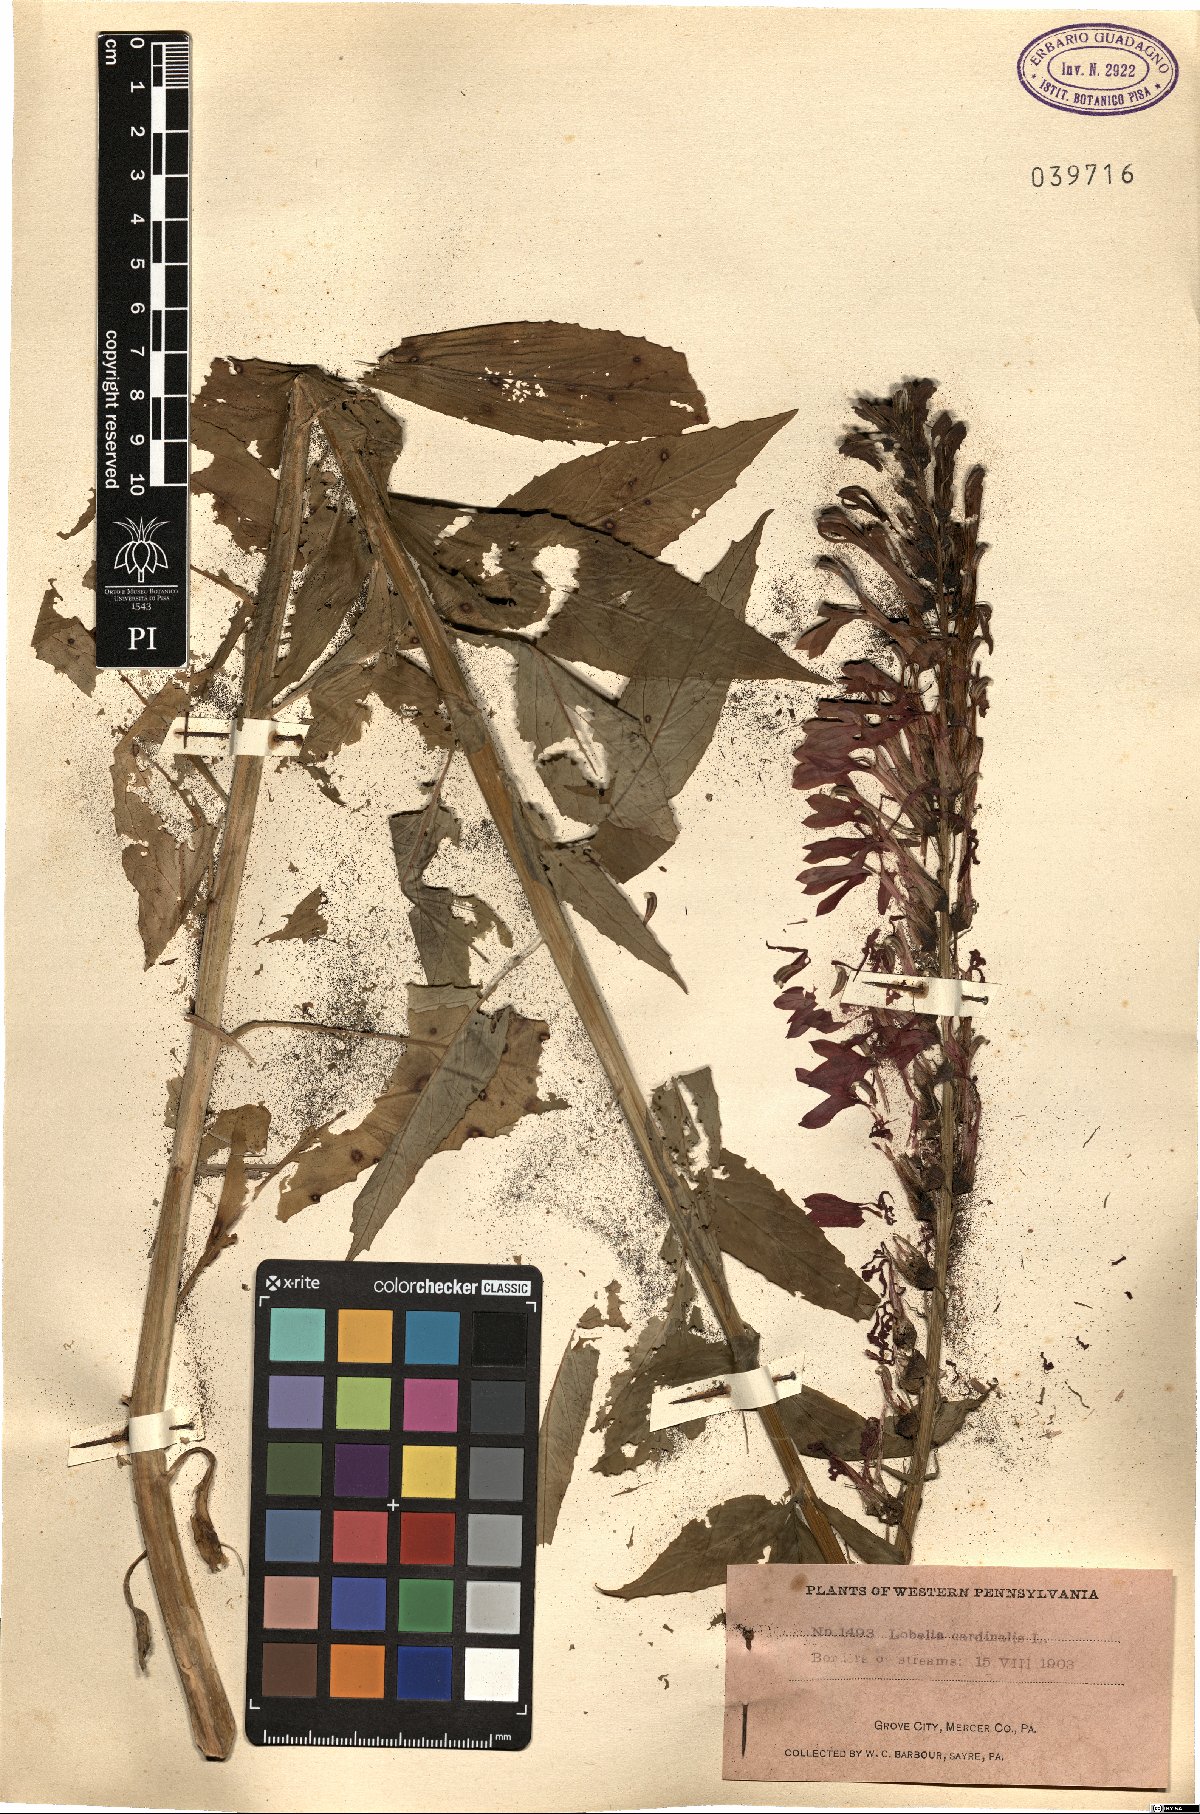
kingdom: Plantae
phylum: Tracheophyta
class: Magnoliopsida
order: Asterales
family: Campanulaceae
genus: Lobelia
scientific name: Lobelia cardinalis
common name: Cardinal flower
